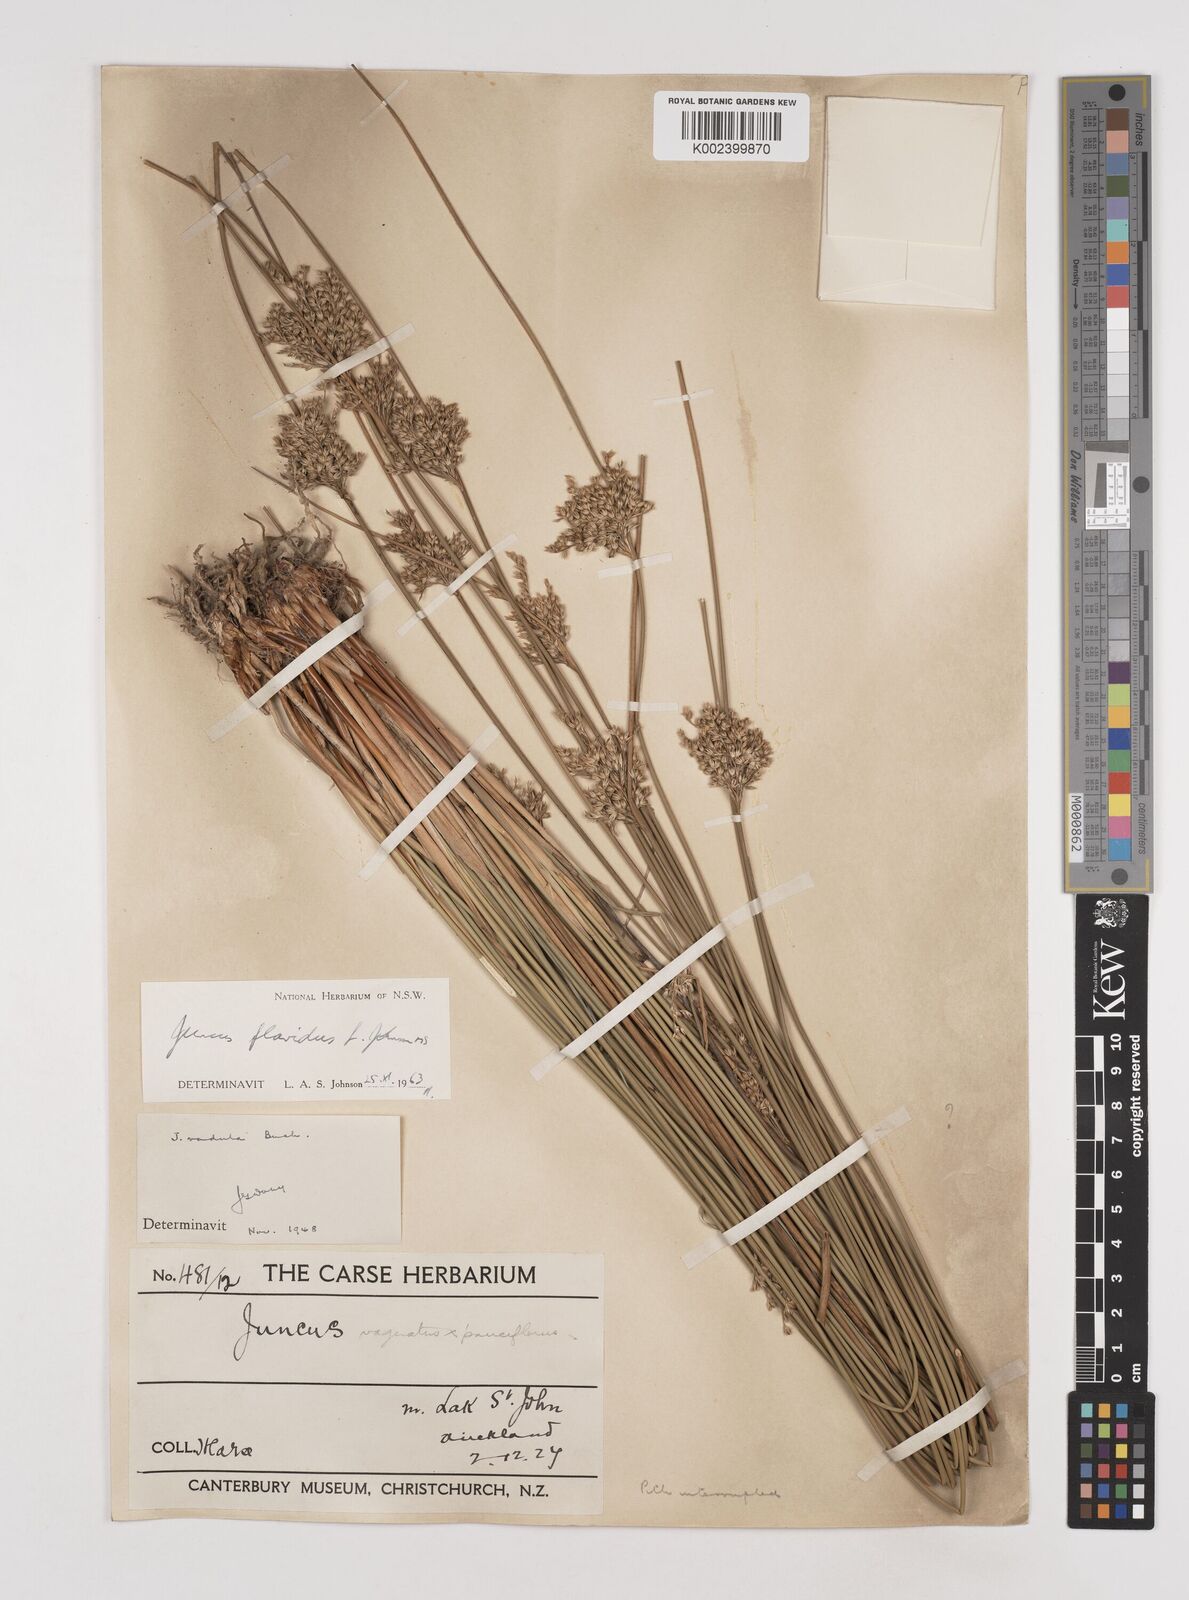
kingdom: Plantae
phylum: Tracheophyta
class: Liliopsida
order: Poales
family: Juncaceae
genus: Juncus
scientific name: Juncus flavidus
